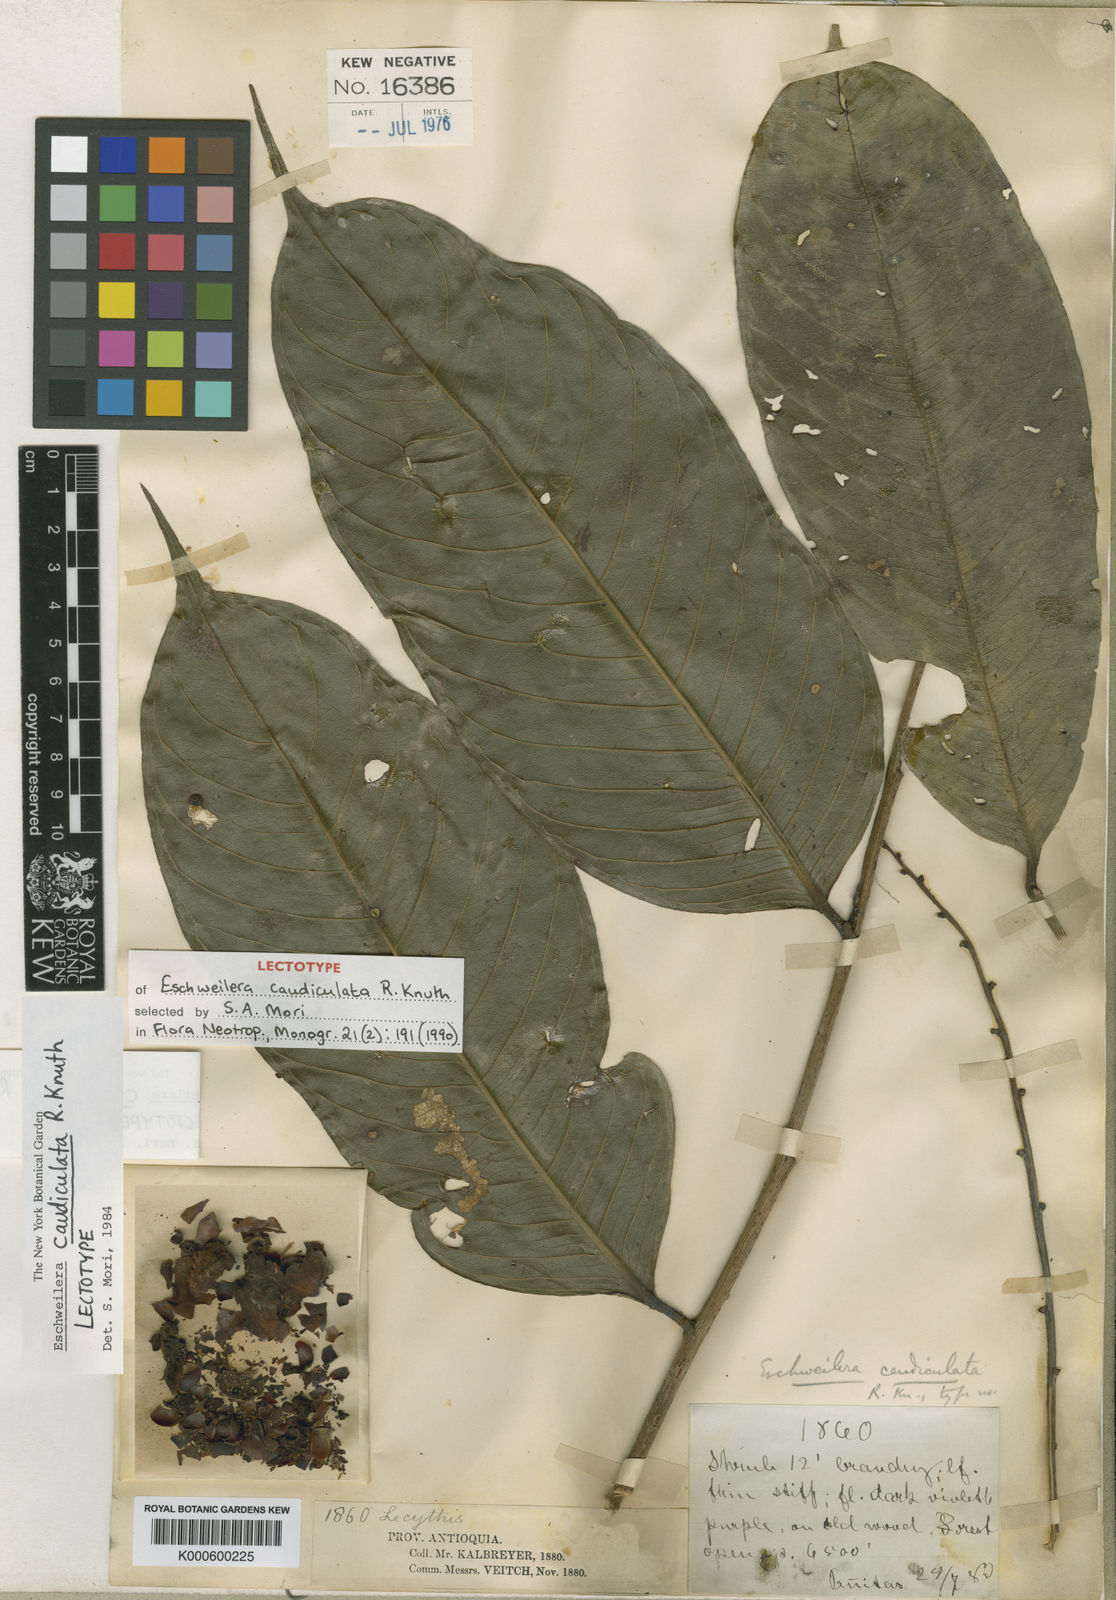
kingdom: Plantae
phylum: Tracheophyta
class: Magnoliopsida
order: Ericales
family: Lecythidaceae
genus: Eschweilera
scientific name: Eschweilera caudiculata
